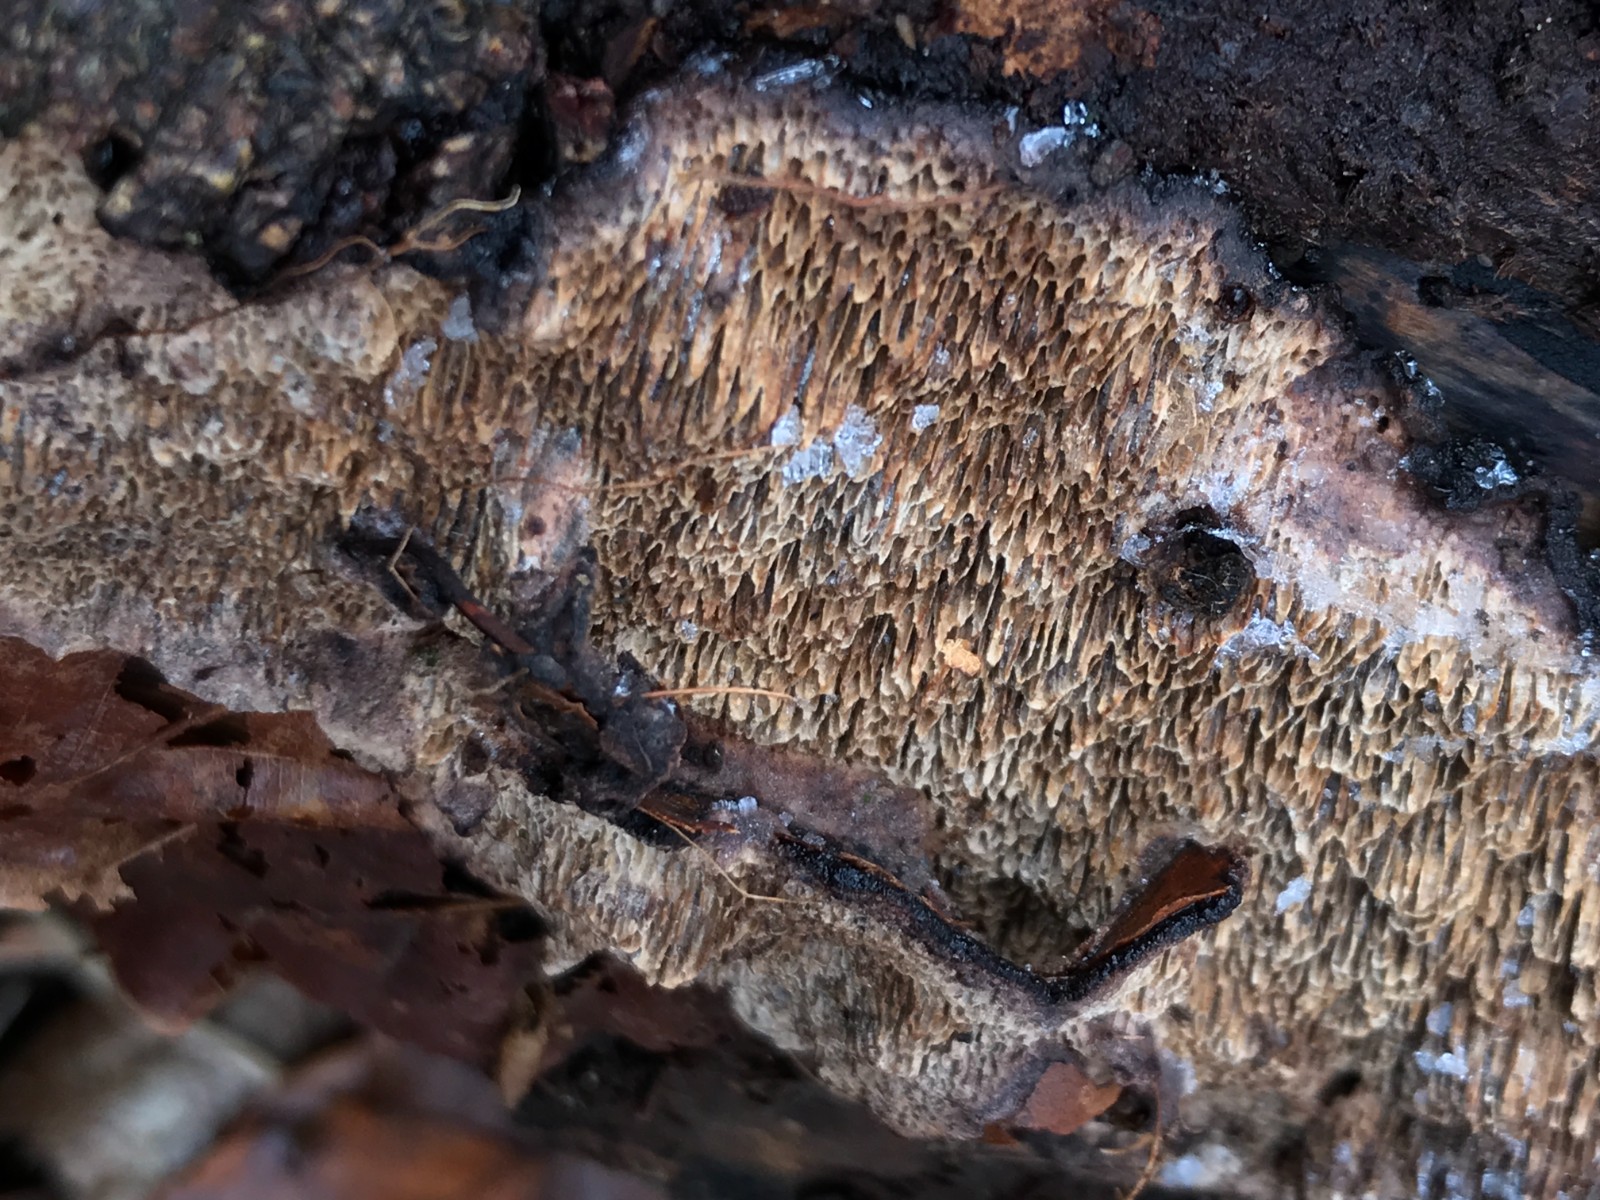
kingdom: Fungi
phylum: Basidiomycota
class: Agaricomycetes
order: Polyporales
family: Polyporaceae
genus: Podofomes
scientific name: Podofomes mollis
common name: blød begporesvamp
